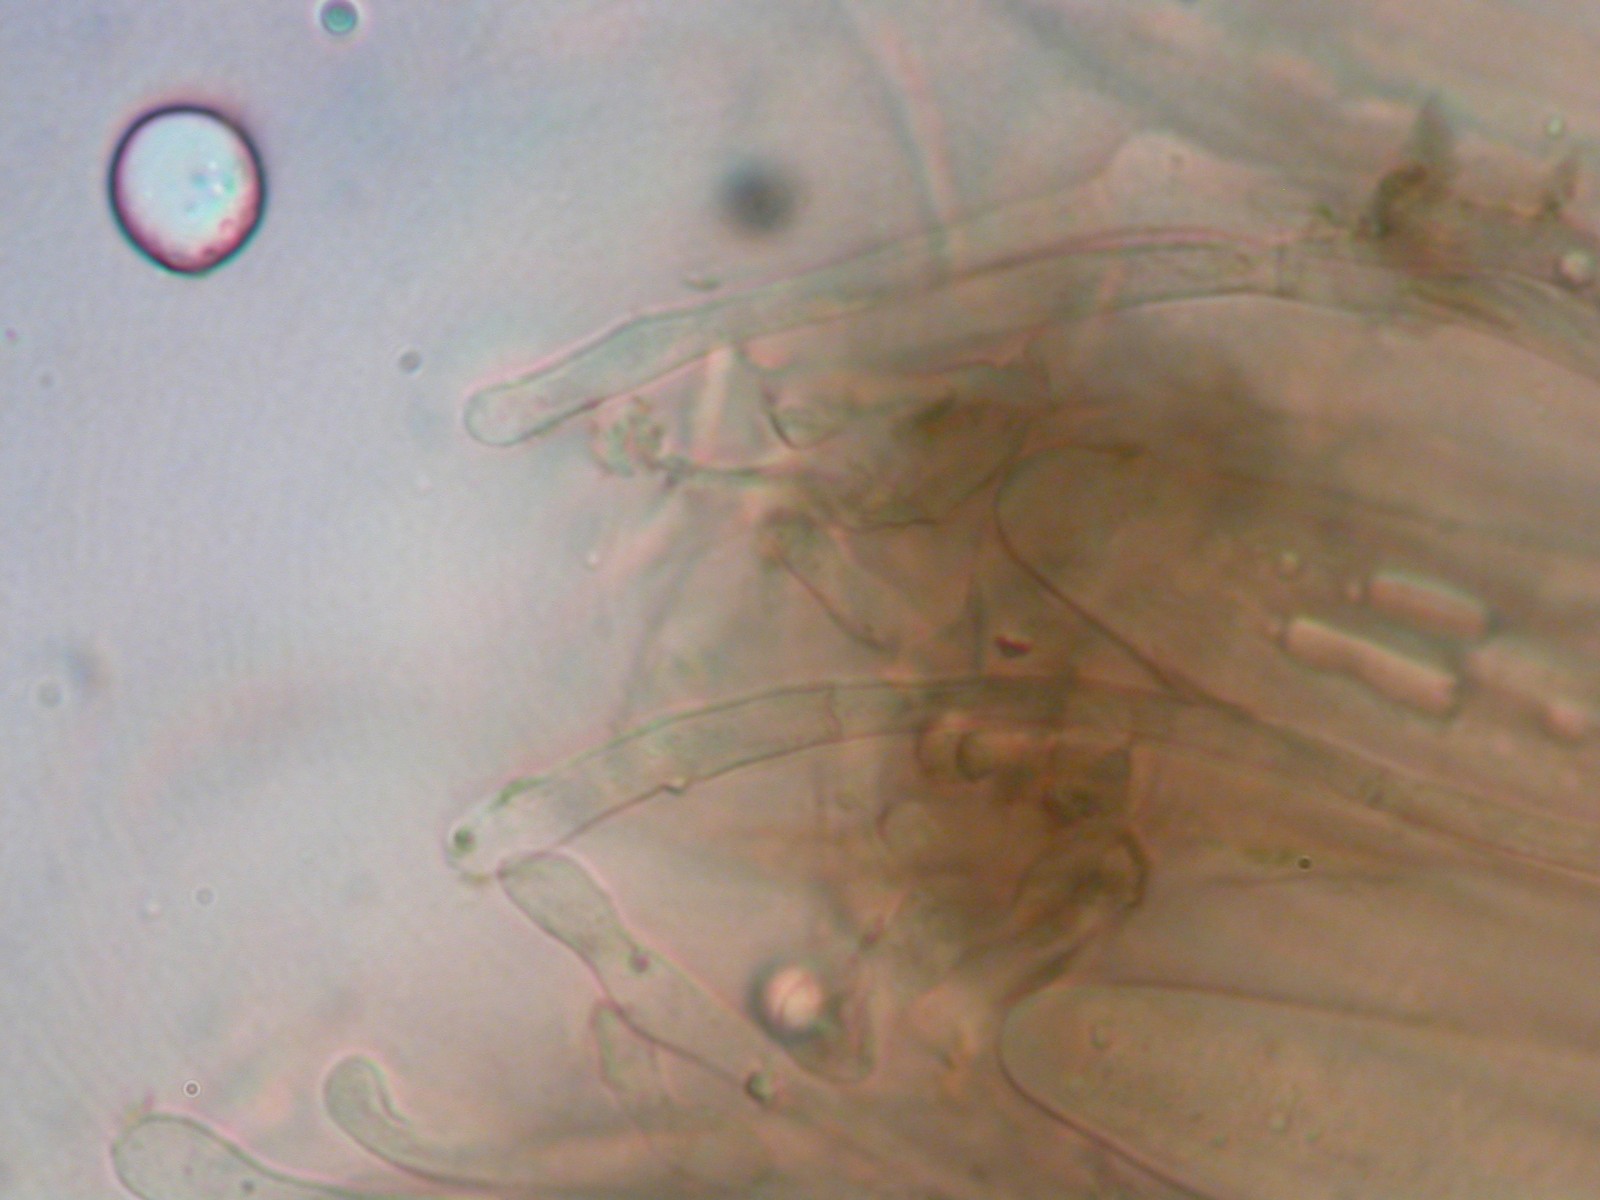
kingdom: Fungi
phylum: Ascomycota
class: Geoglossomycetes
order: Geoglossales
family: Geoglossaceae
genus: Geoglossum
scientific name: Geoglossum fallax
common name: småskællet jordtunge
